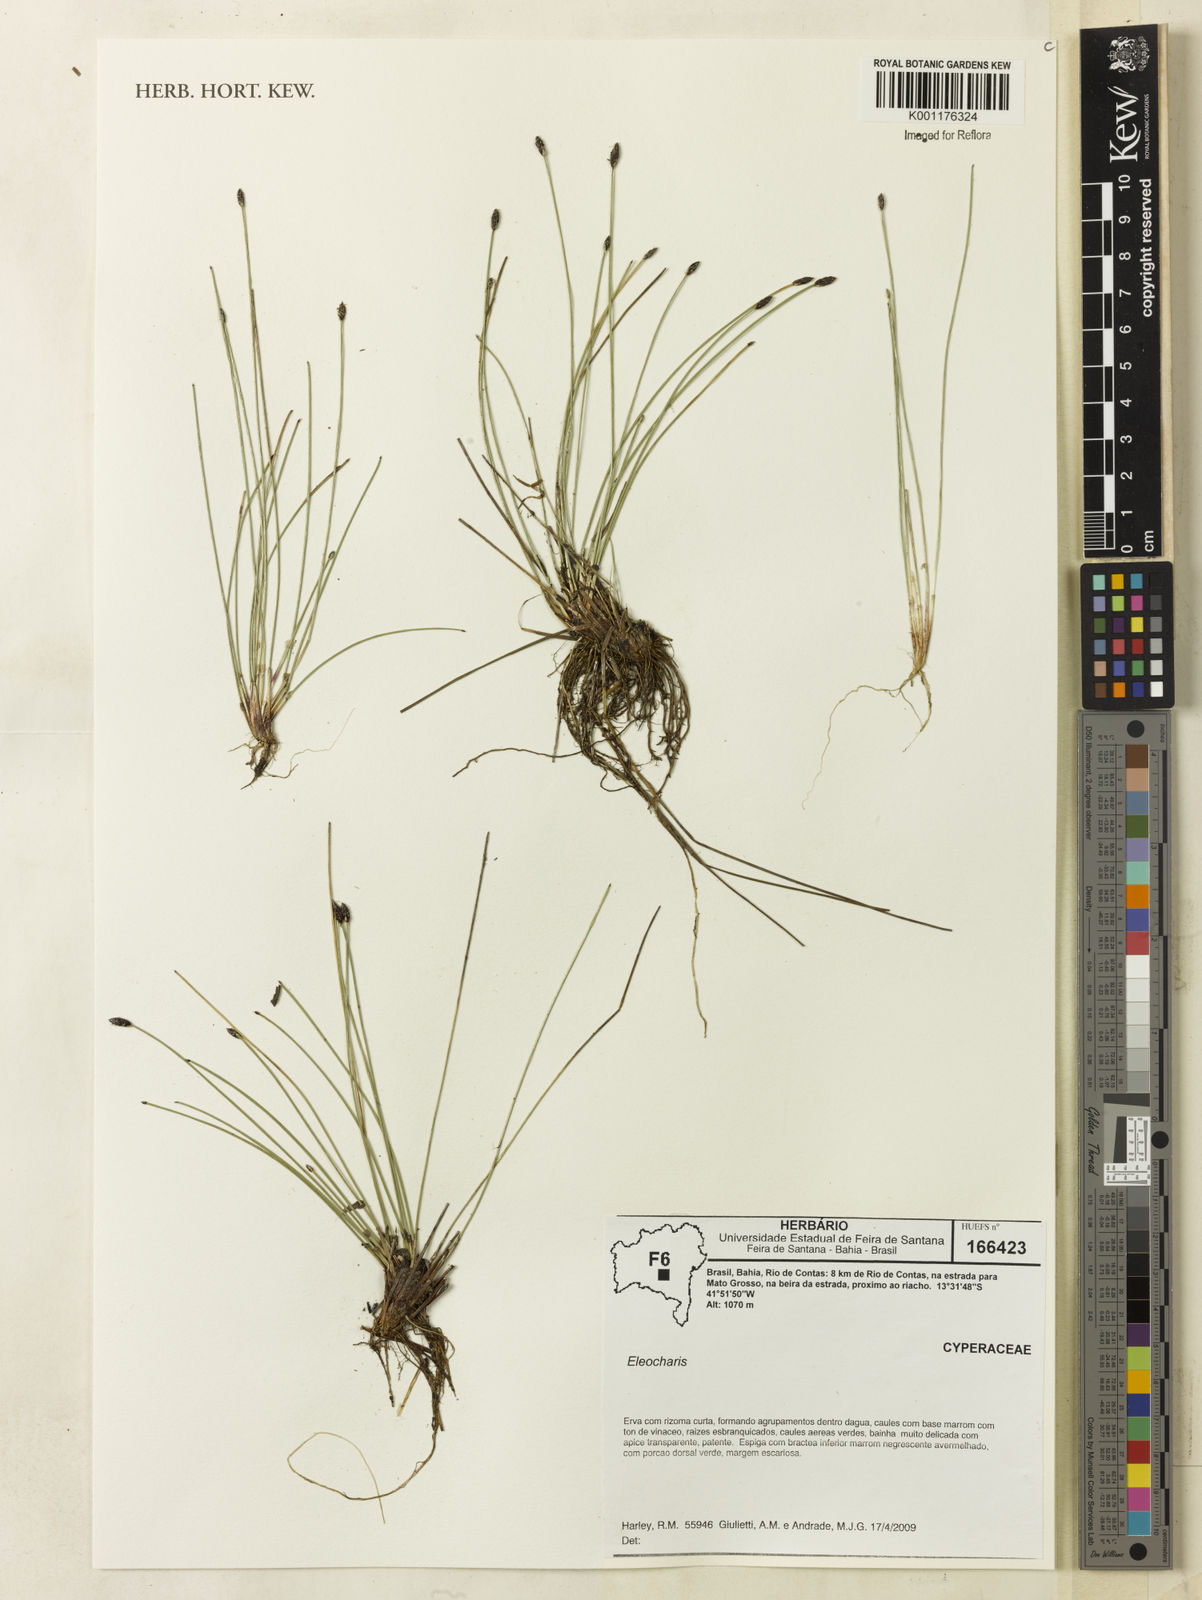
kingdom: Plantae
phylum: Tracheophyta
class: Liliopsida
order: Poales
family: Cyperaceae
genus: Eleocharis
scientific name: Eleocharis
